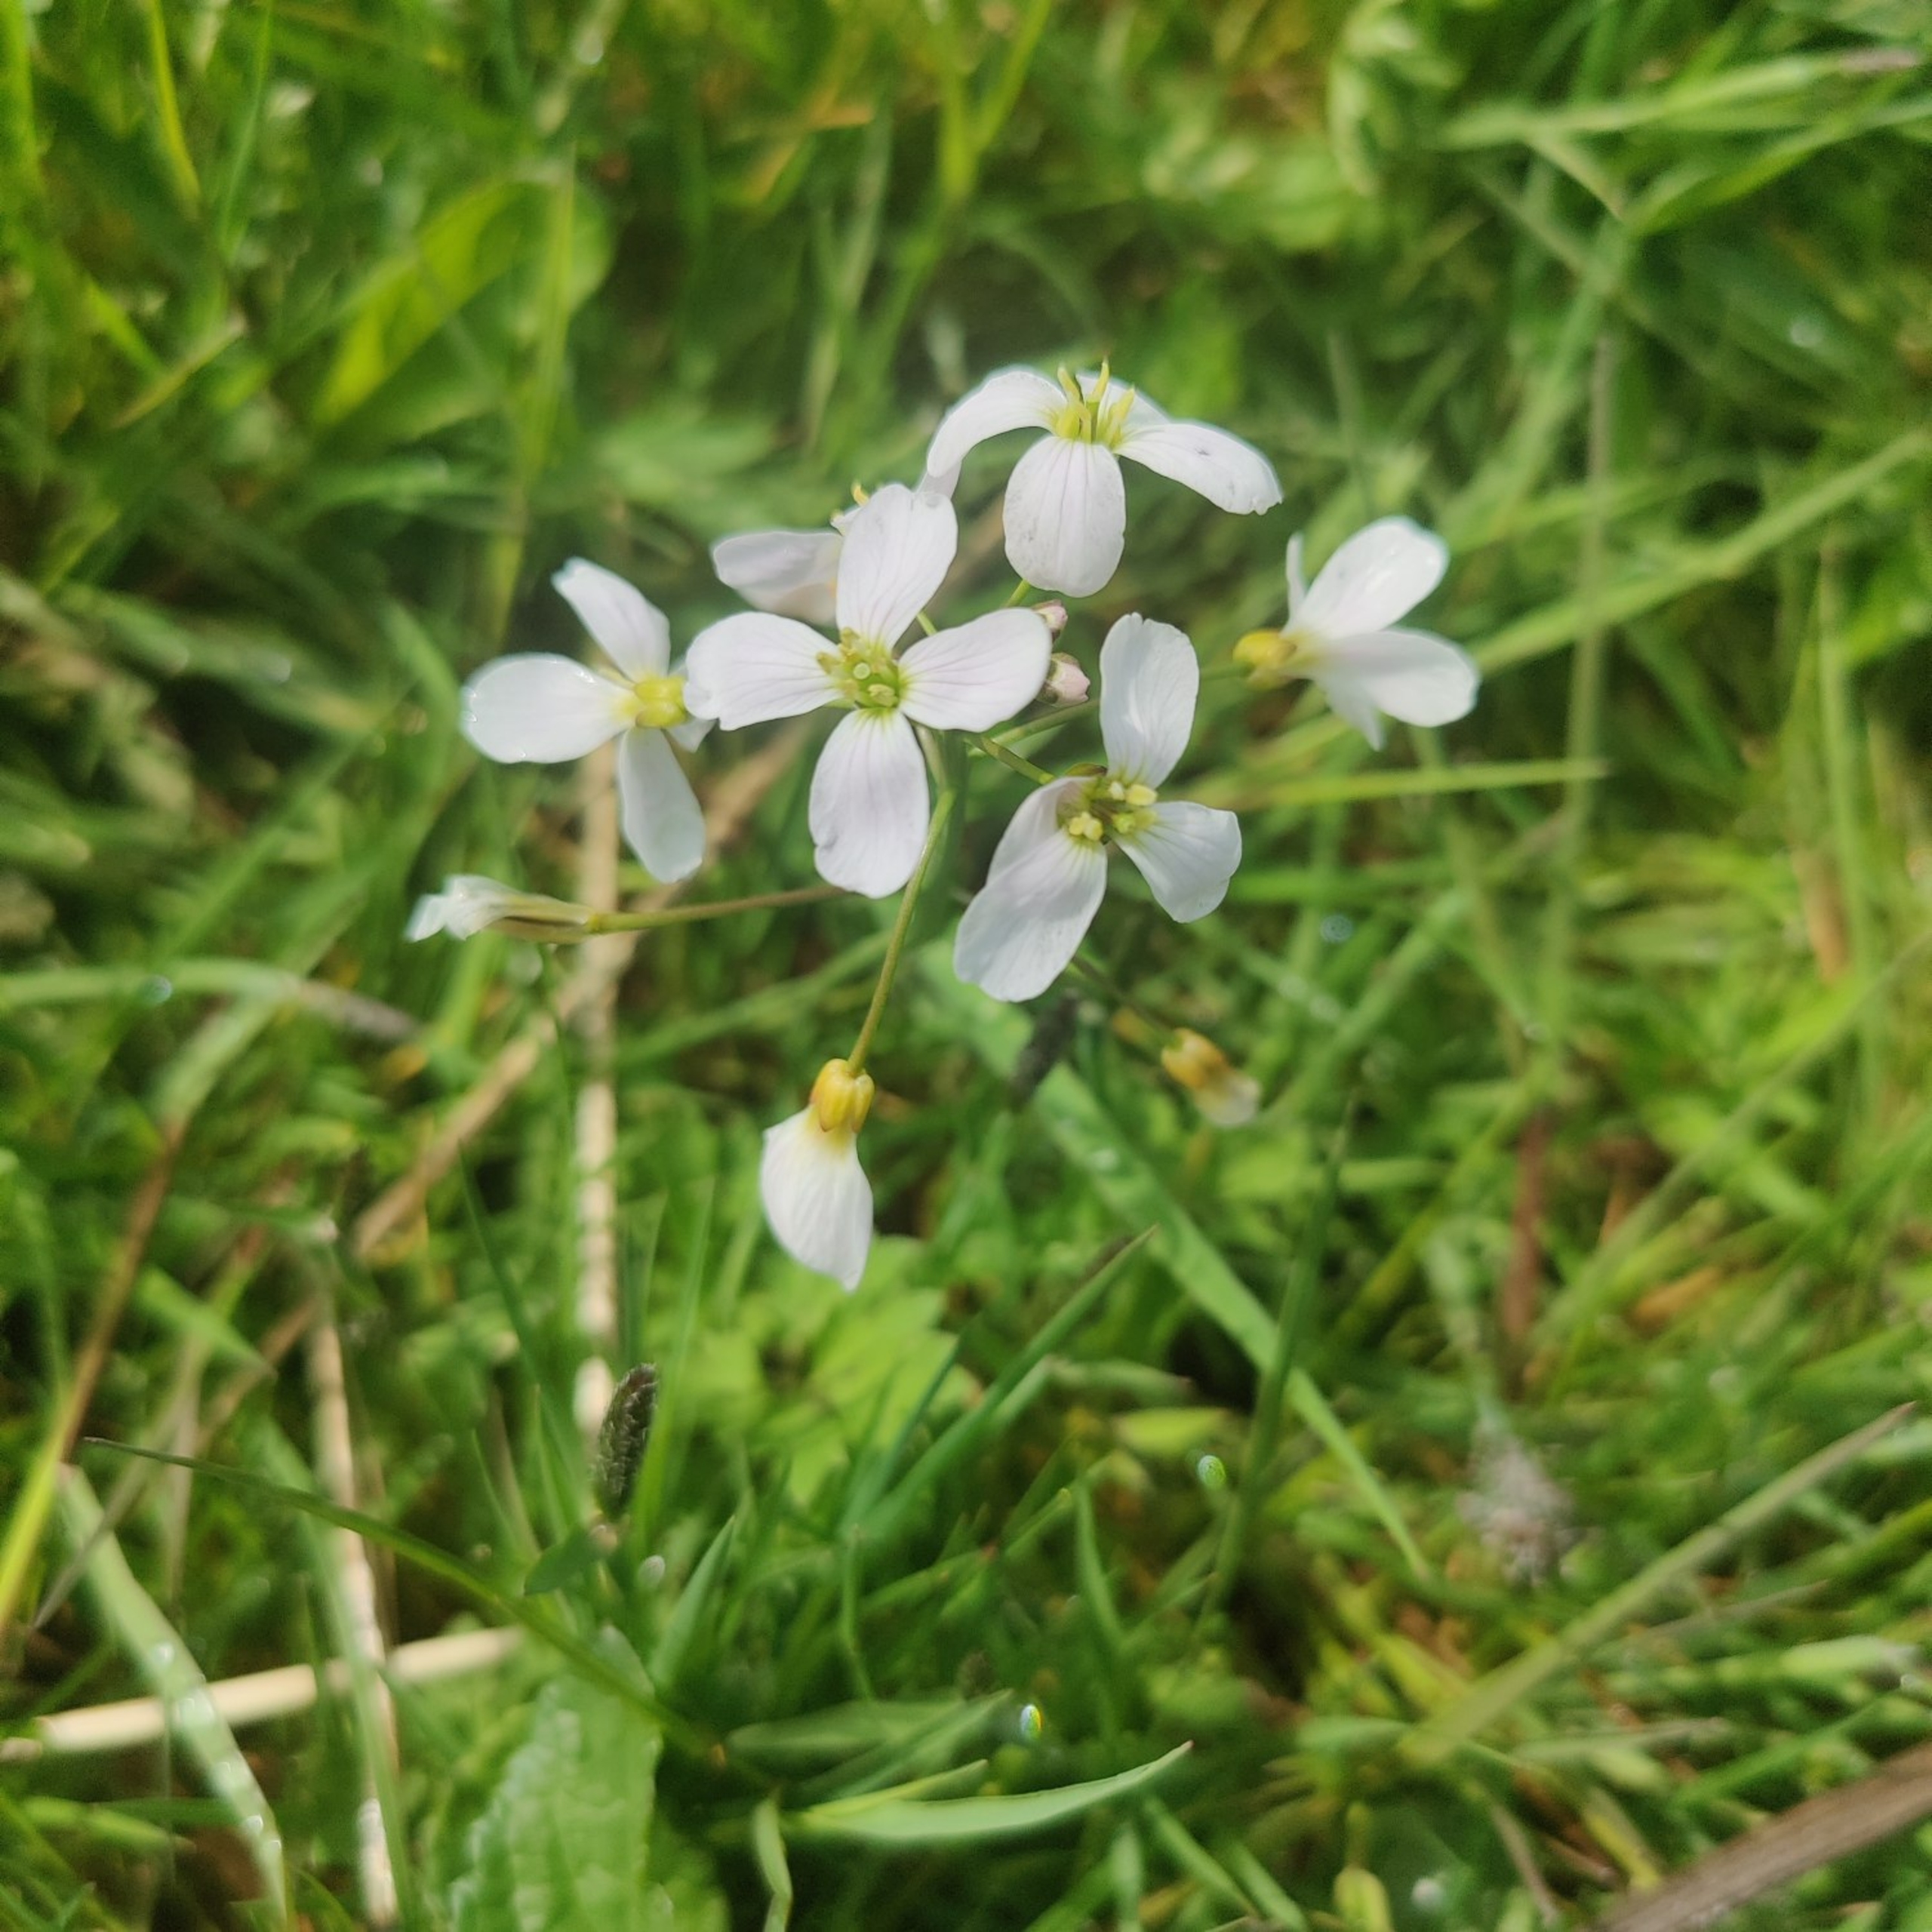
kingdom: Plantae
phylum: Tracheophyta
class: Magnoliopsida
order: Brassicales
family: Brassicaceae
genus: Cardamine
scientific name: Cardamine pratensis
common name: Engkarse
